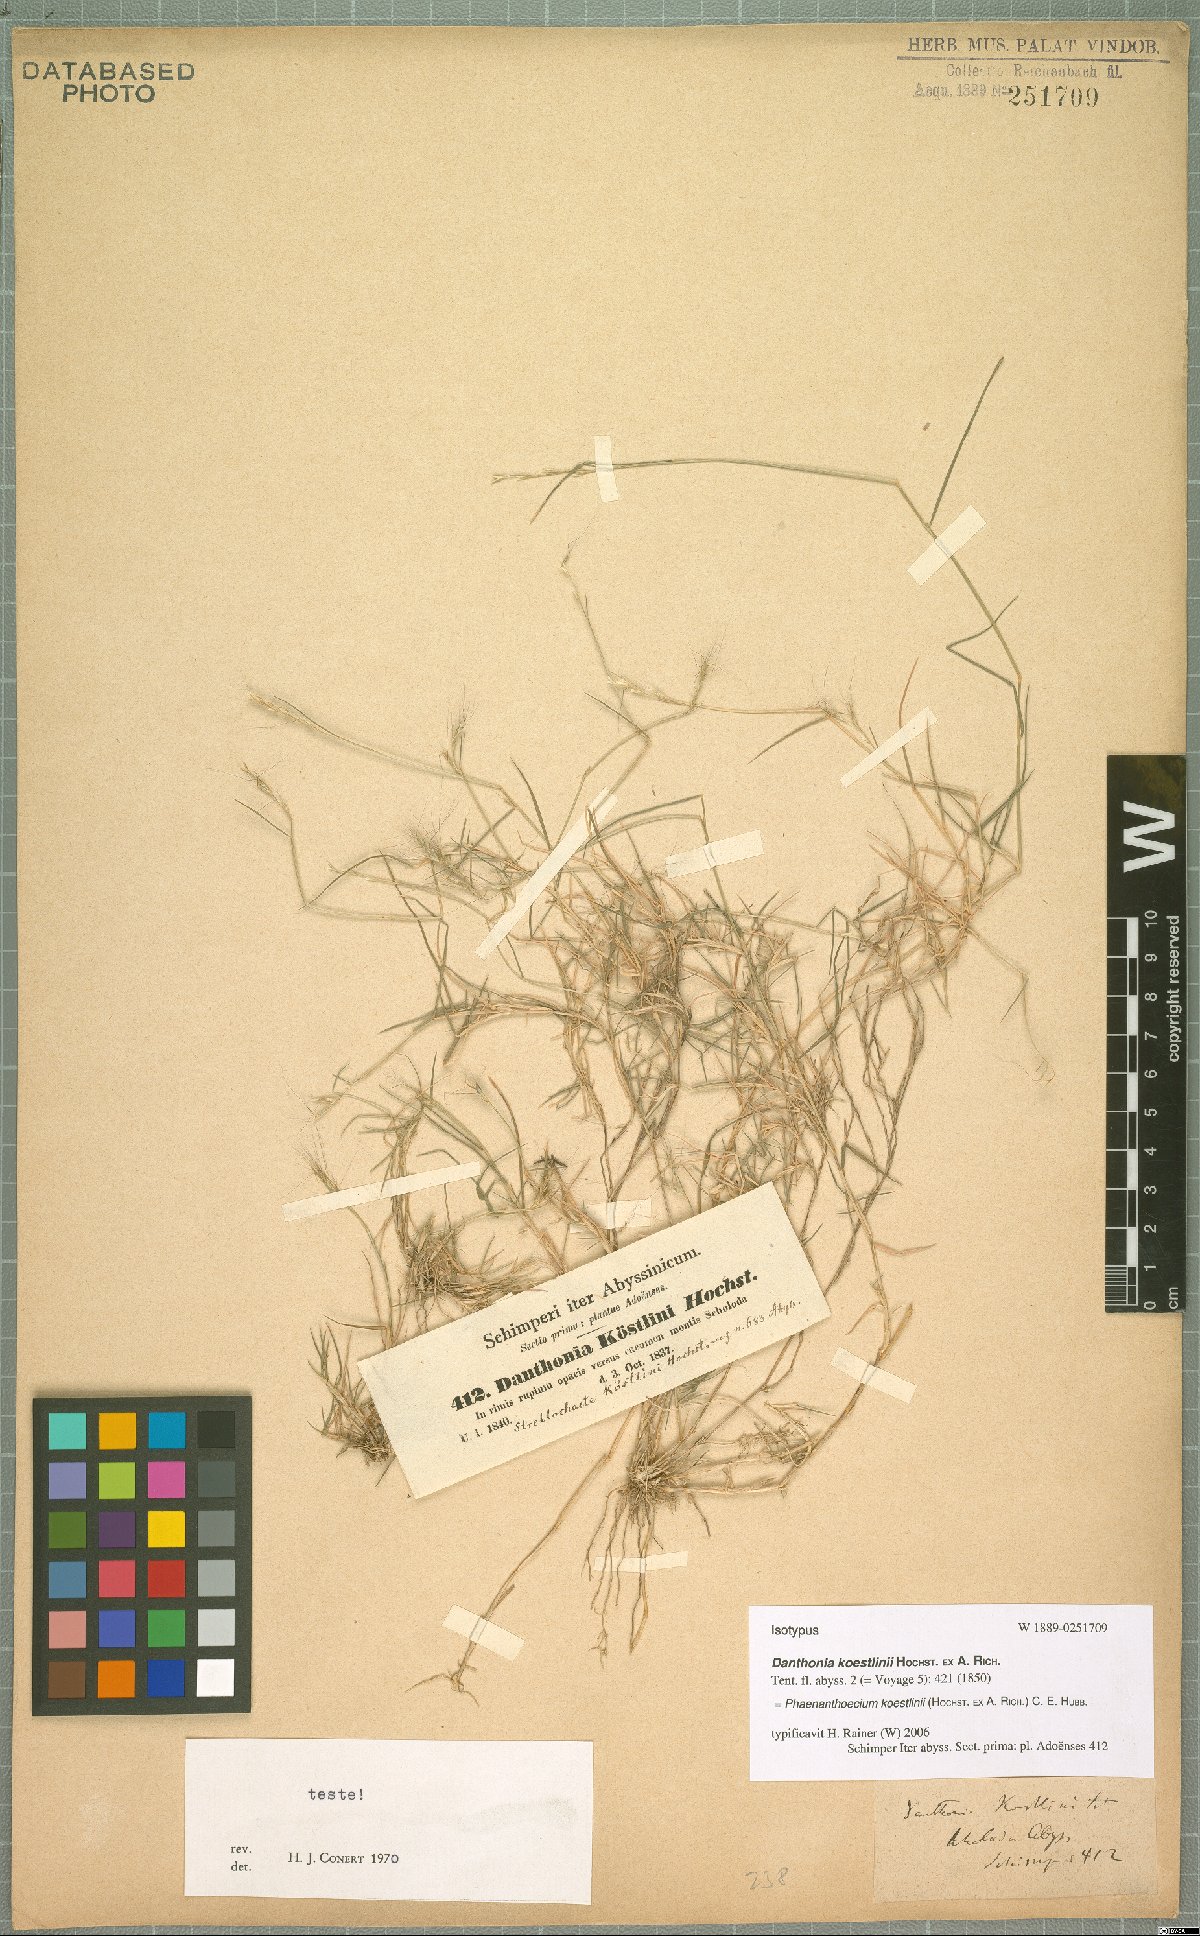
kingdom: Plantae
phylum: Tracheophyta
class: Liliopsida
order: Poales
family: Poaceae
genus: Phaenanthoecium
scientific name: Phaenanthoecium koestlinii
